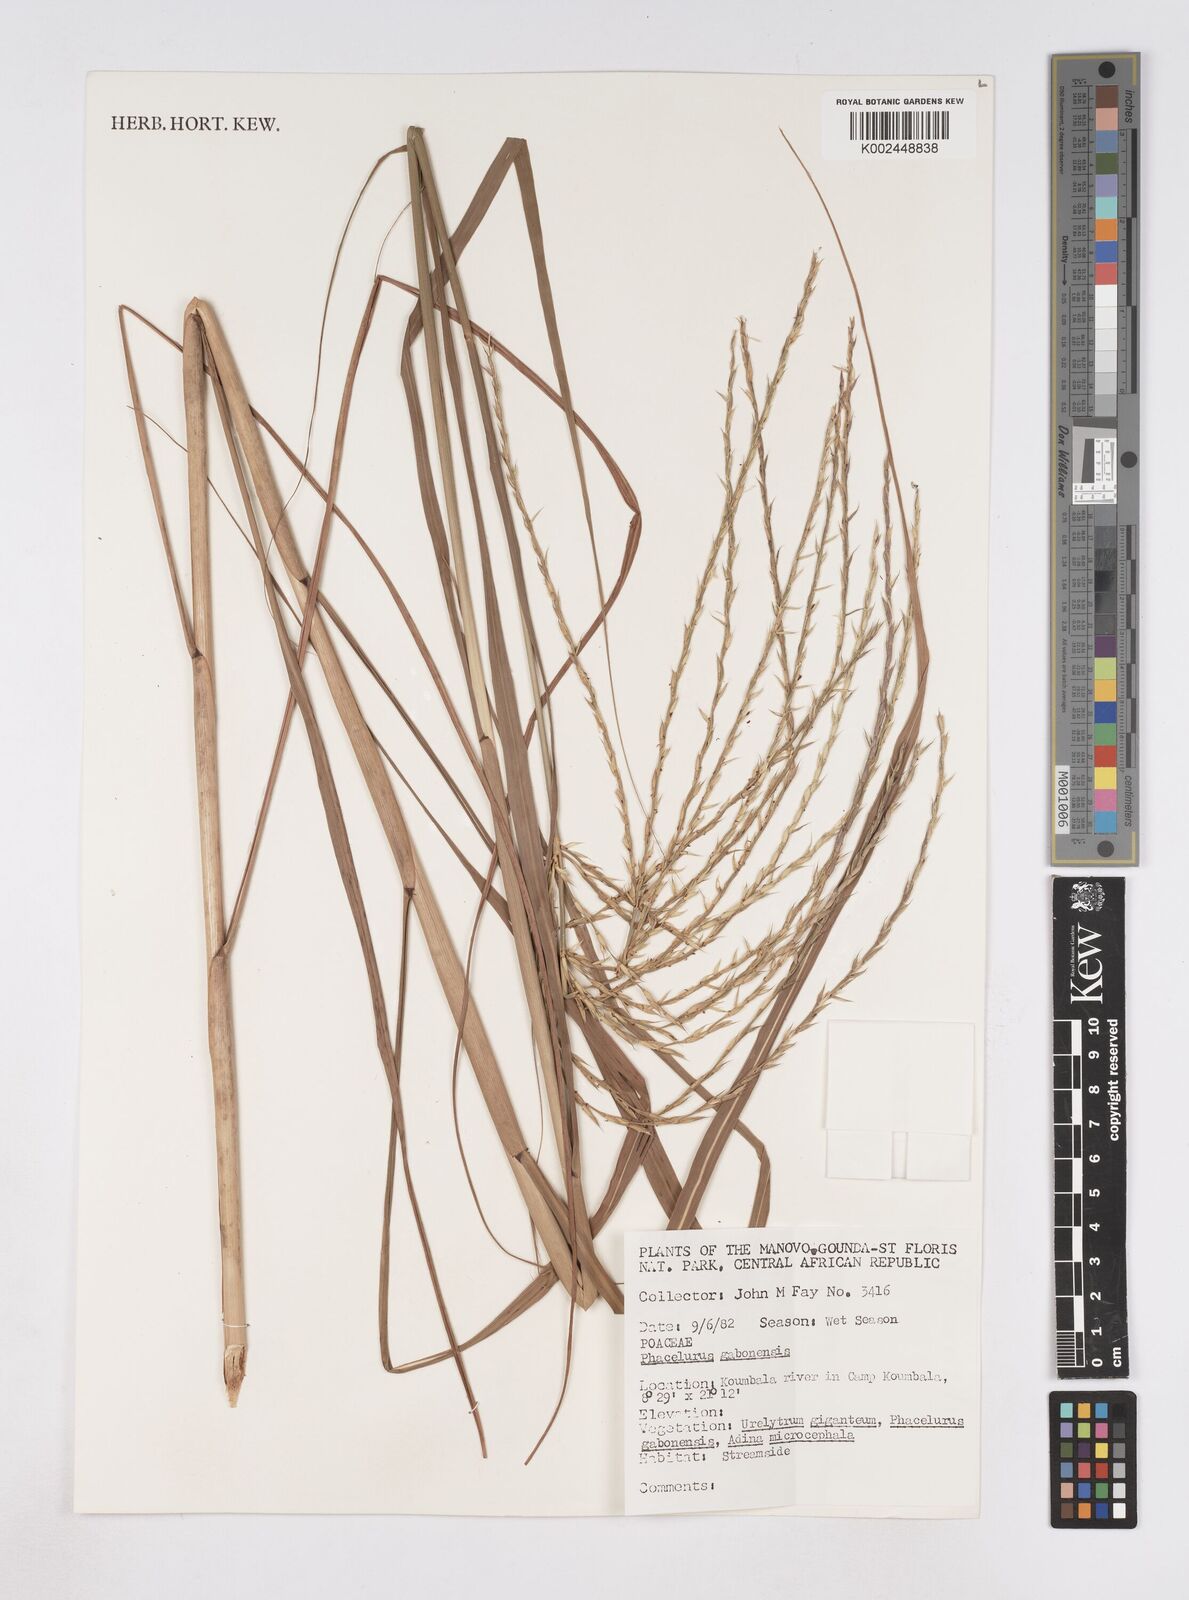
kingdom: Plantae
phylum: Tracheophyta
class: Liliopsida
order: Poales
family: Poaceae
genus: Phacelurus
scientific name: Phacelurus gabonensis
